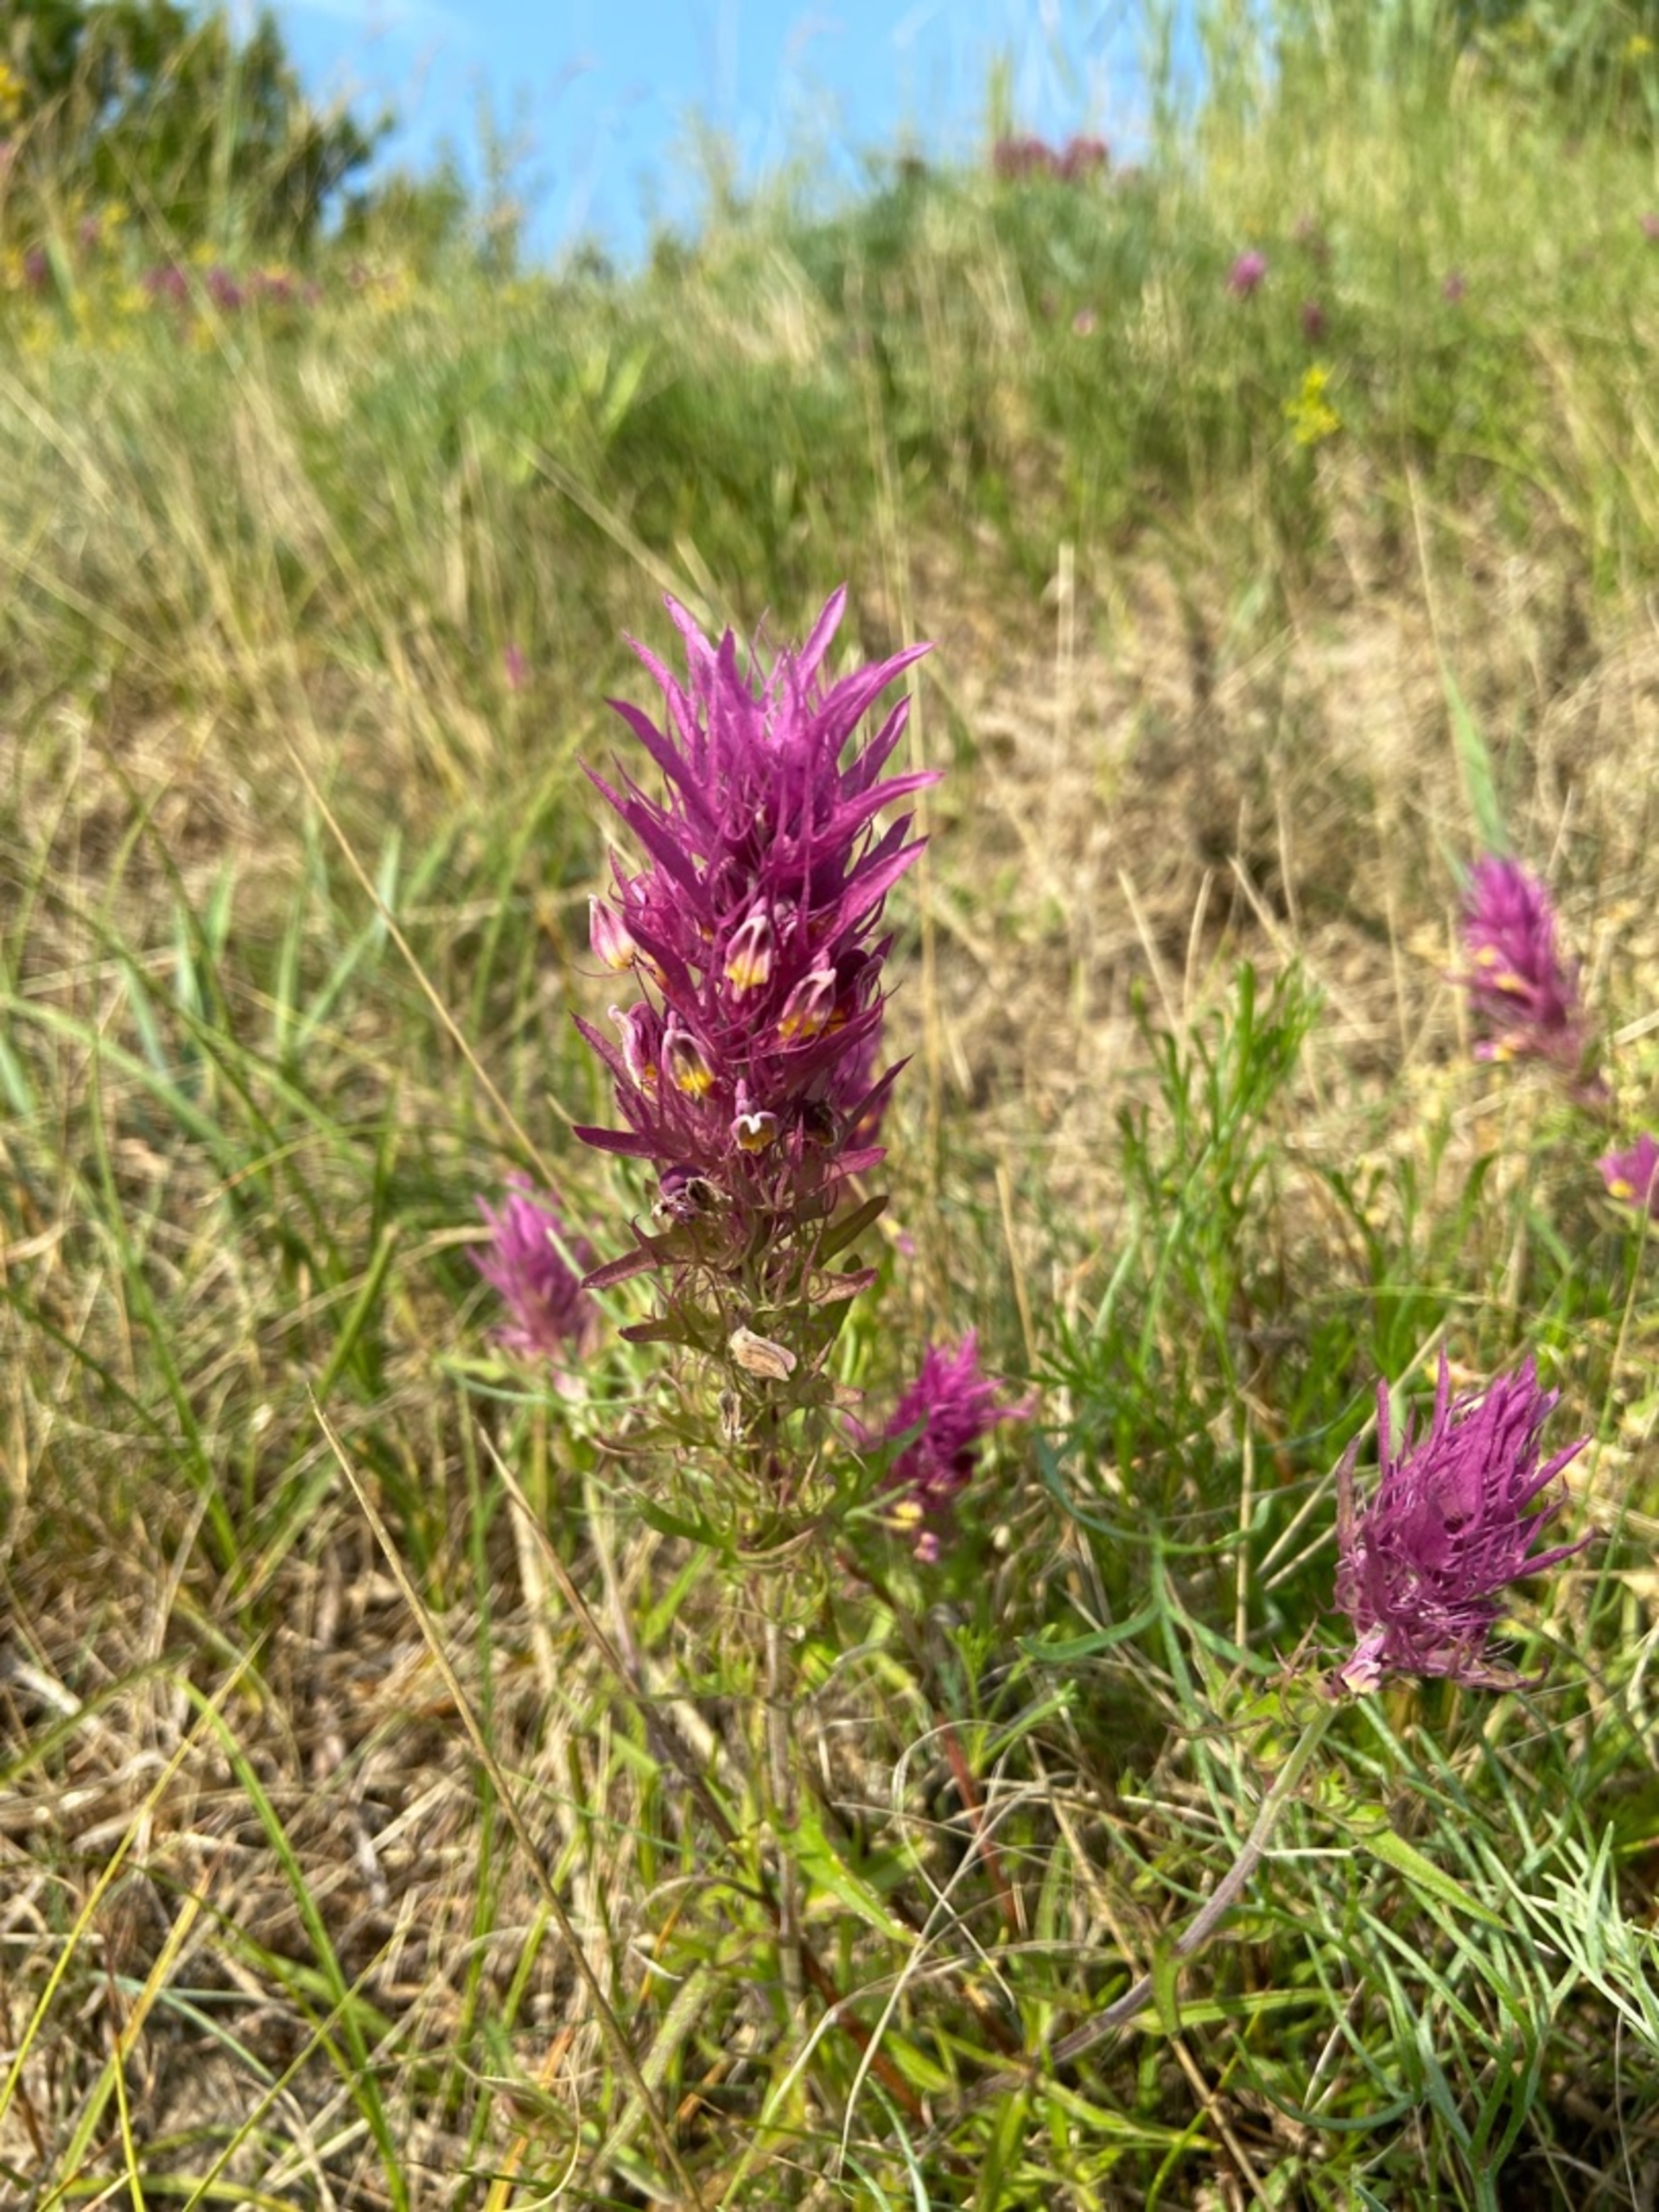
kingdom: Plantae
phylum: Tracheophyta
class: Magnoliopsida
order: Lamiales
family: Orobanchaceae
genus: Melampyrum
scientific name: Melampyrum arvense
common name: Ager-kohvede
